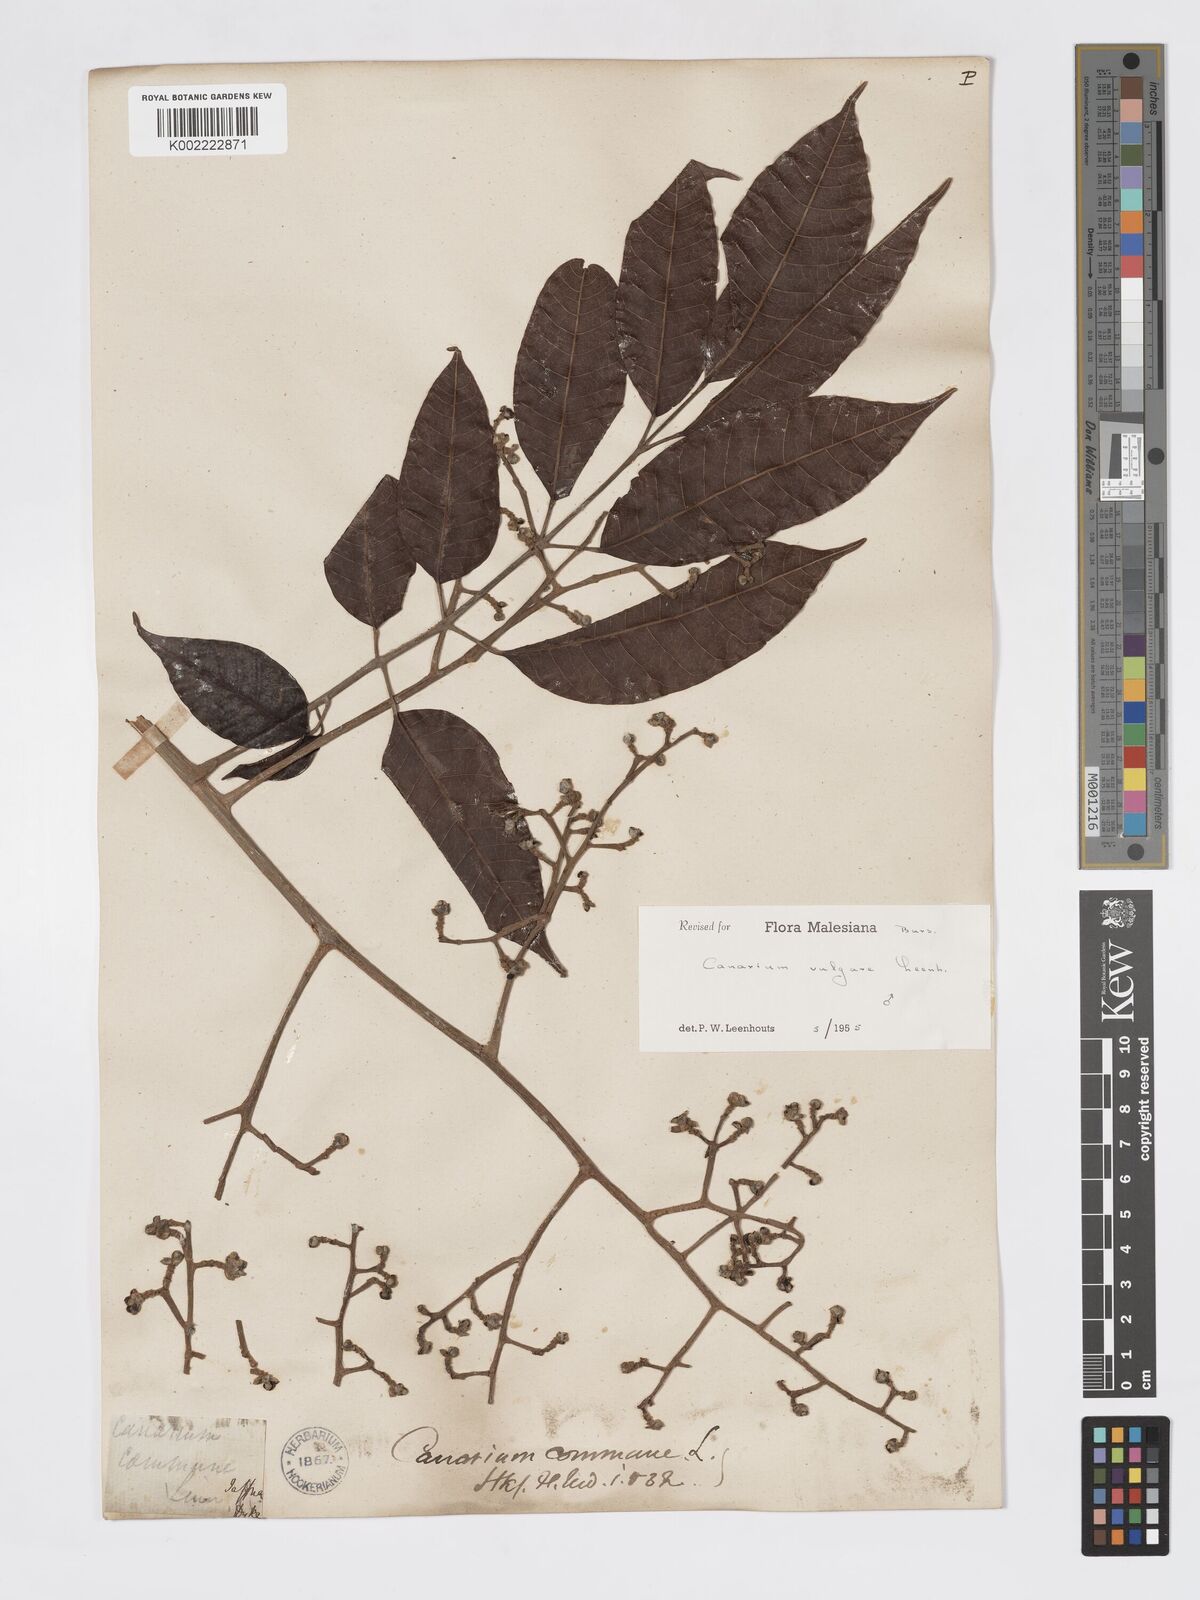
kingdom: Plantae
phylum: Tracheophyta
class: Magnoliopsida
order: Sapindales
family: Burseraceae
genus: Canarium
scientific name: Canarium vulgare
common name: Java almond
